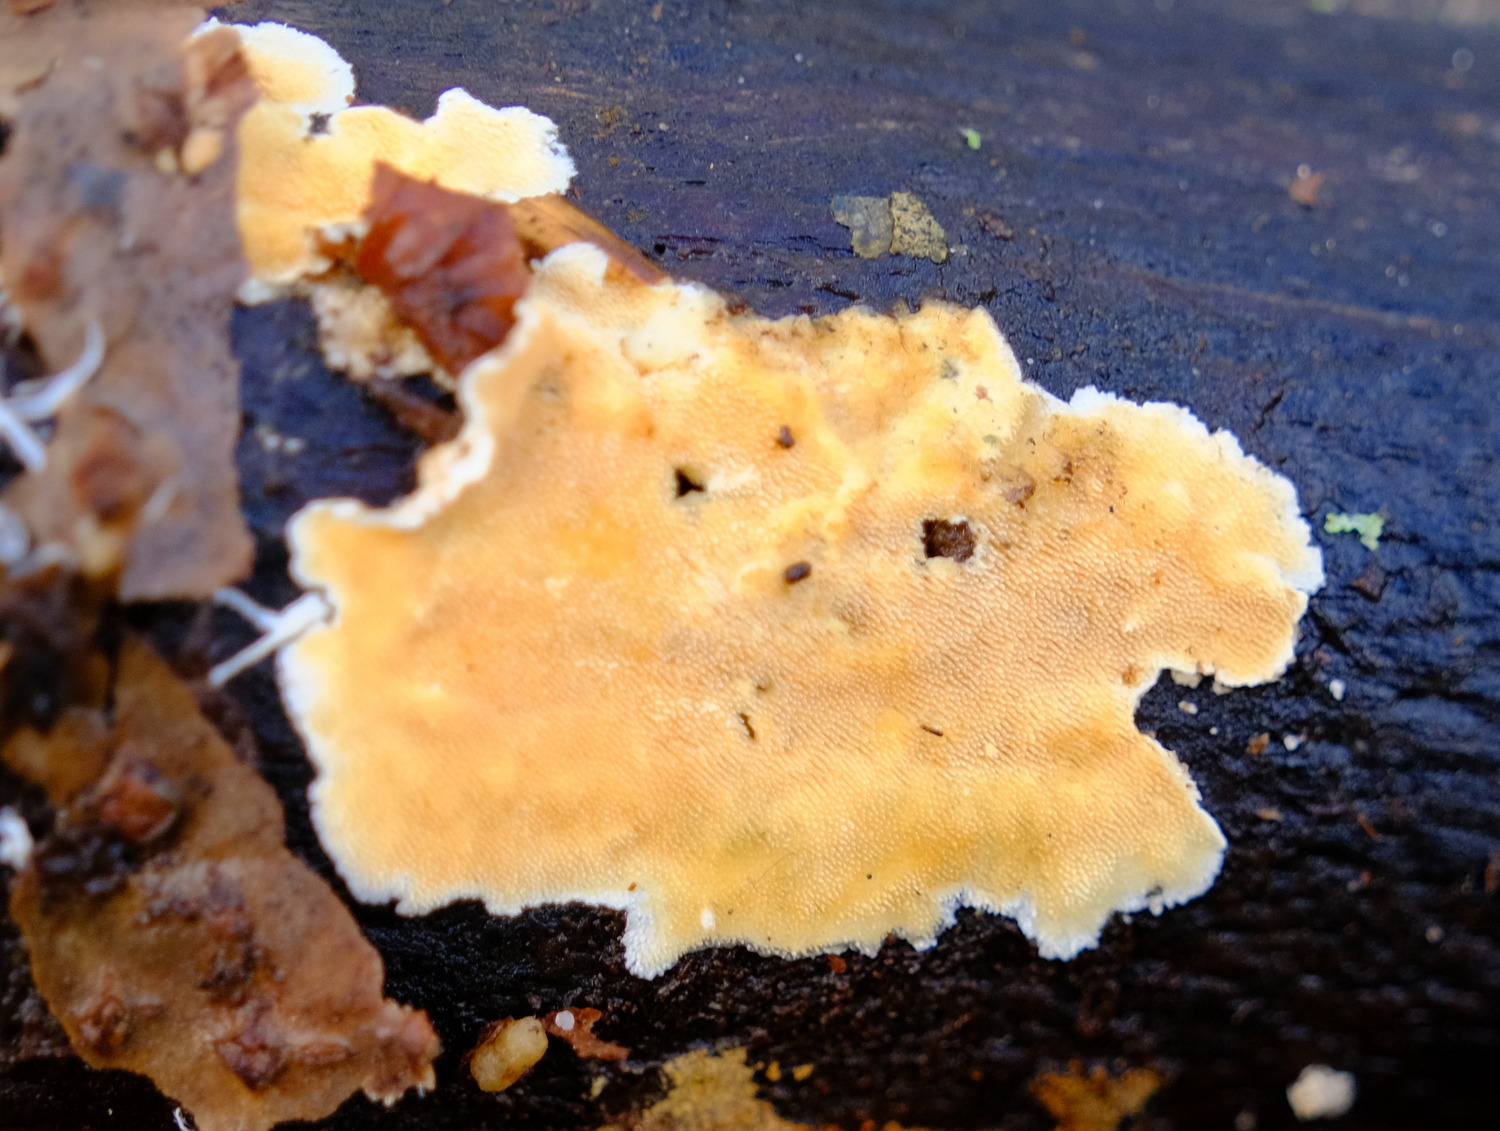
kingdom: Fungi
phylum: Basidiomycota
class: Agaricomycetes
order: Polyporales
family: Steccherinaceae
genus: Steccherinum
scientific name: Steccherinum ochraceum
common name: almindelig skønpig
